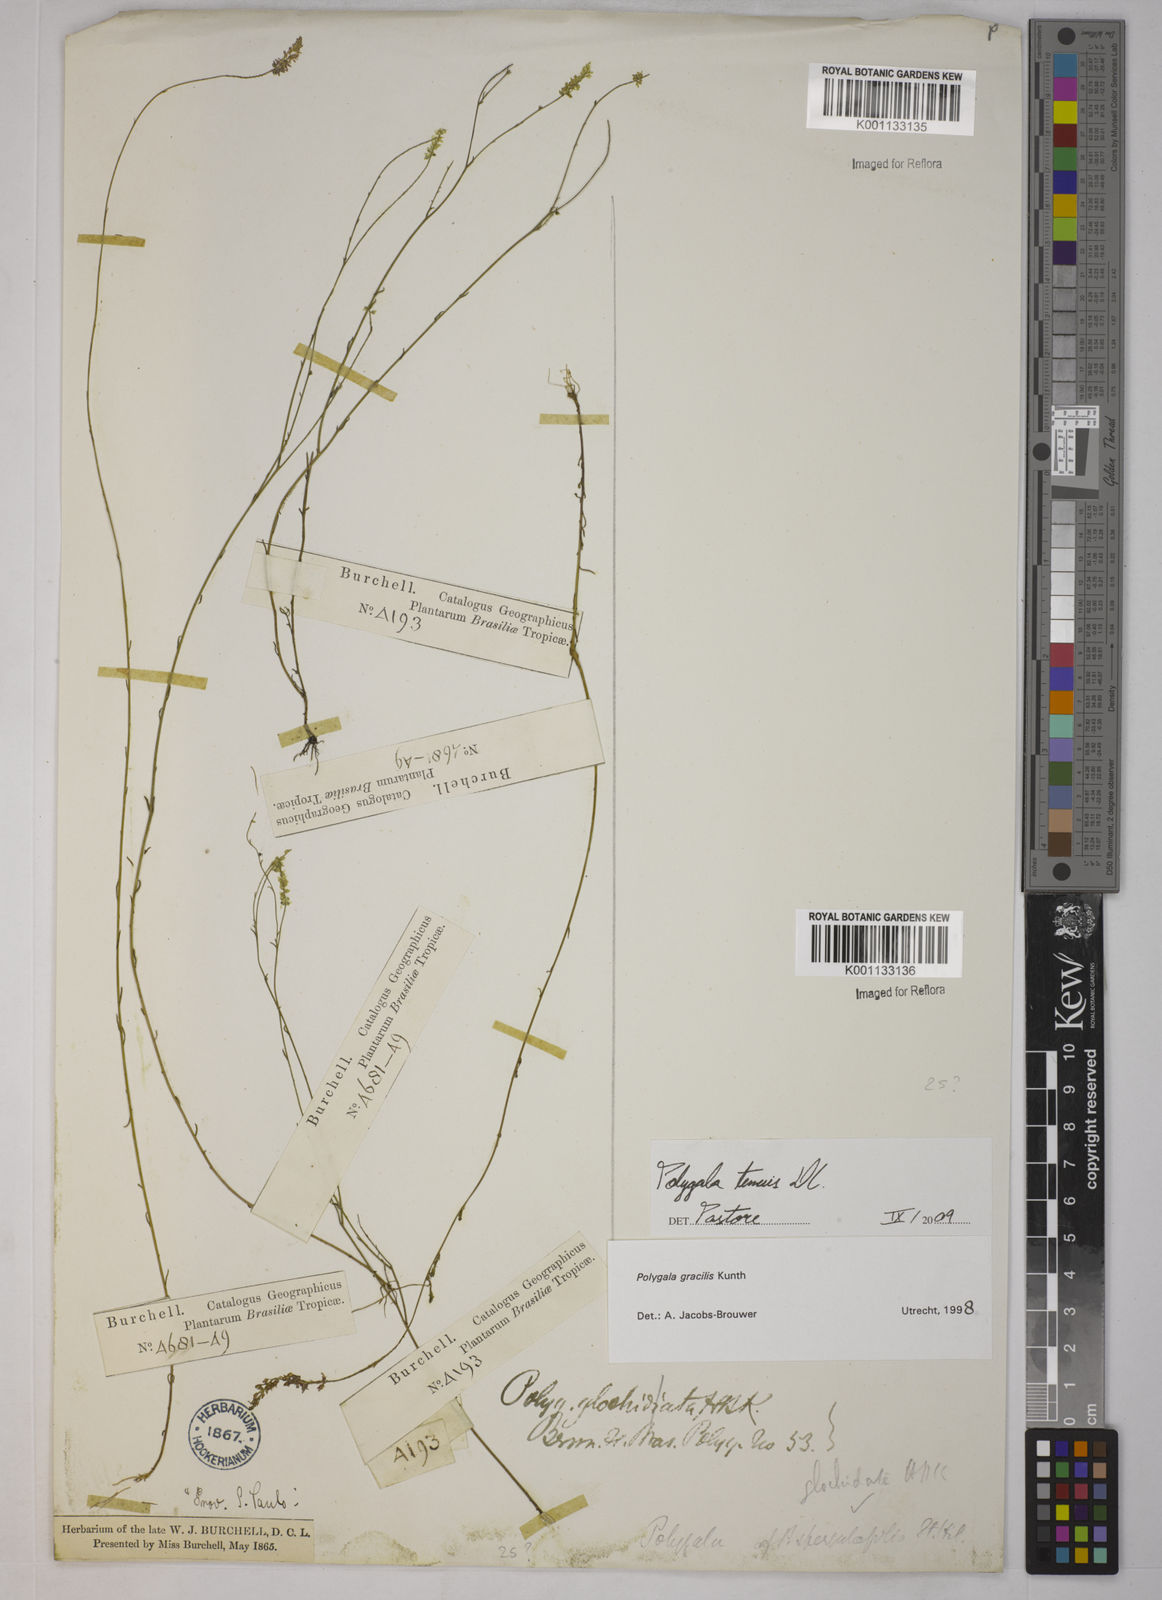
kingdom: Plantae
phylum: Tracheophyta
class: Magnoliopsida
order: Fabales
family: Polygalaceae
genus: Polygala
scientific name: Polygala tenuis
